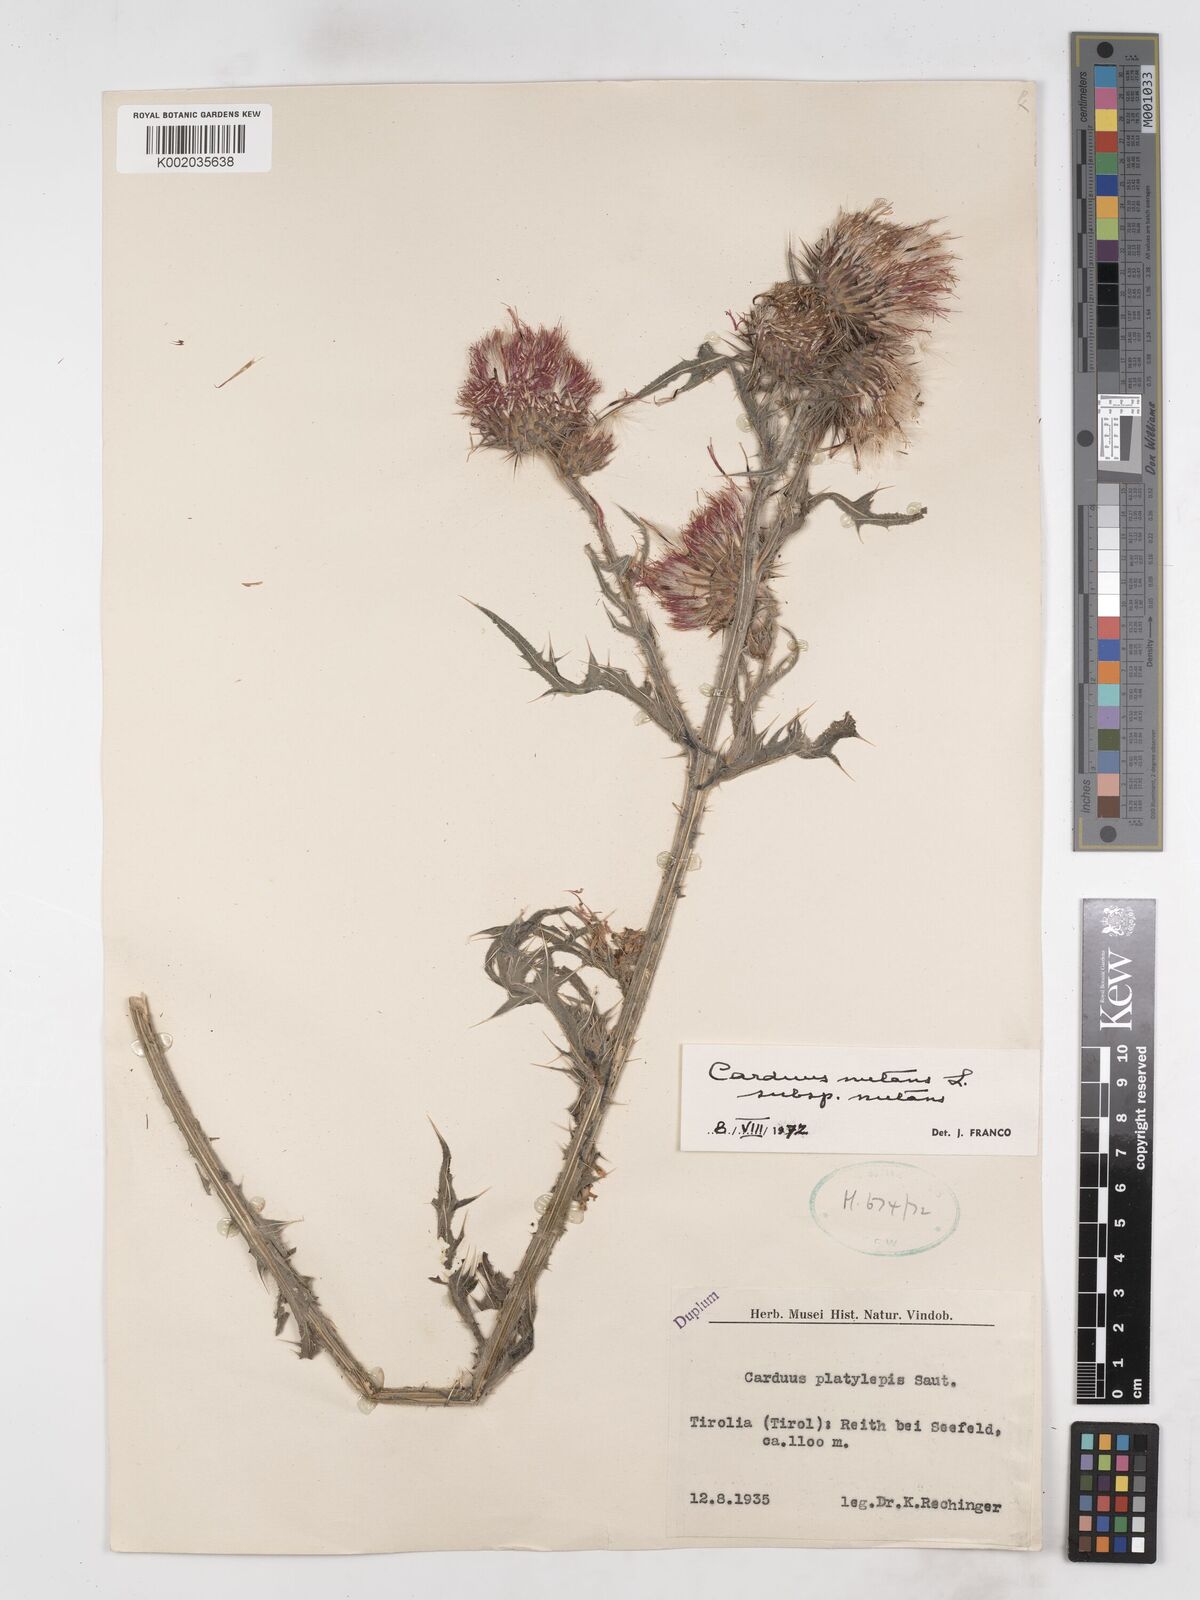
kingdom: Plantae
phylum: Tracheophyta
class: Magnoliopsida
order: Asterales
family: Asteraceae
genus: Carduus
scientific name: Carduus nutans
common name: Musk thistle
